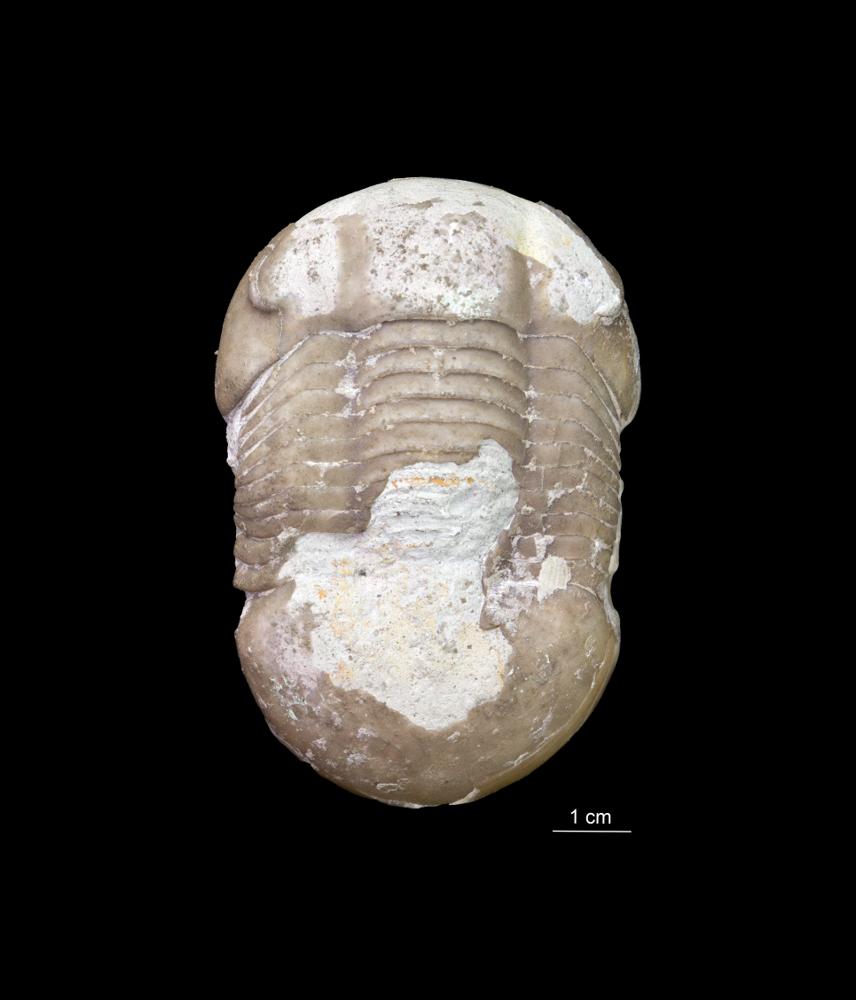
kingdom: Animalia
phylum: Arthropoda
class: Trilobita
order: Corynexochida
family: Illaenidae
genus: Illaenus
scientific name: Illaenus
